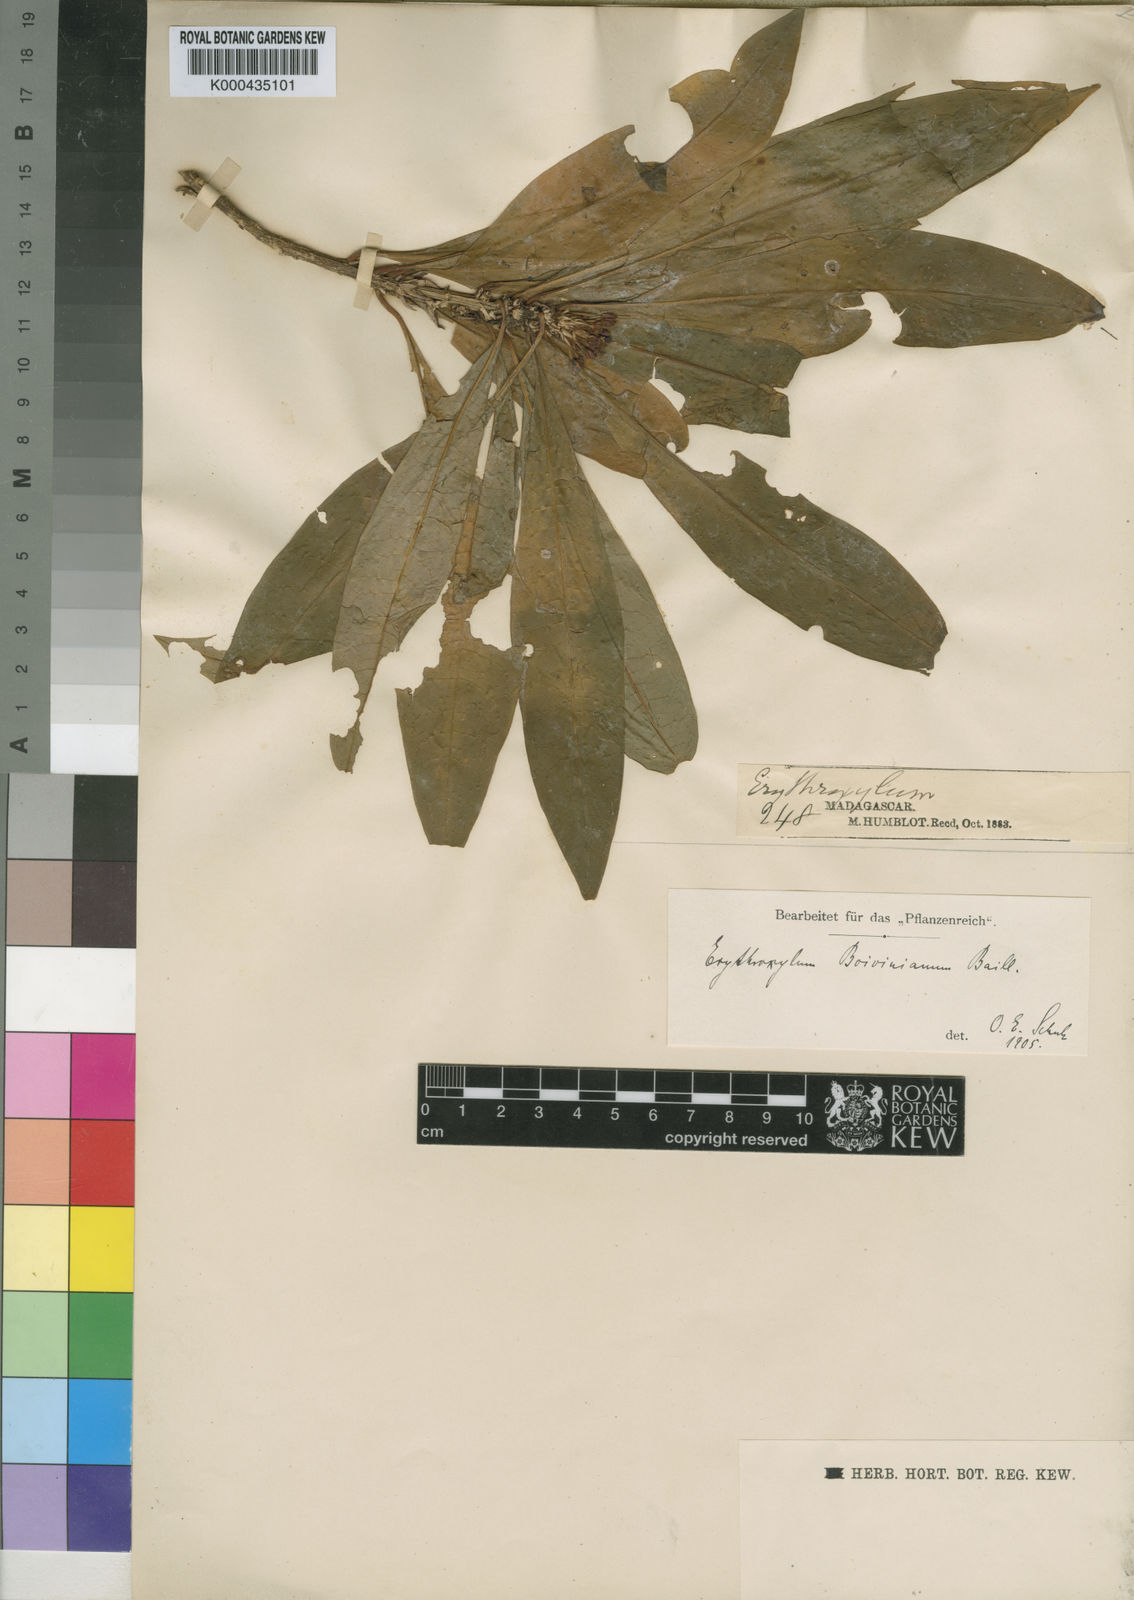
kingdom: Plantae
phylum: Tracheophyta
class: Magnoliopsida
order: Malpighiales
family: Erythroxylaceae
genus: Erythroxylum
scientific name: Erythroxylum boivinianum
